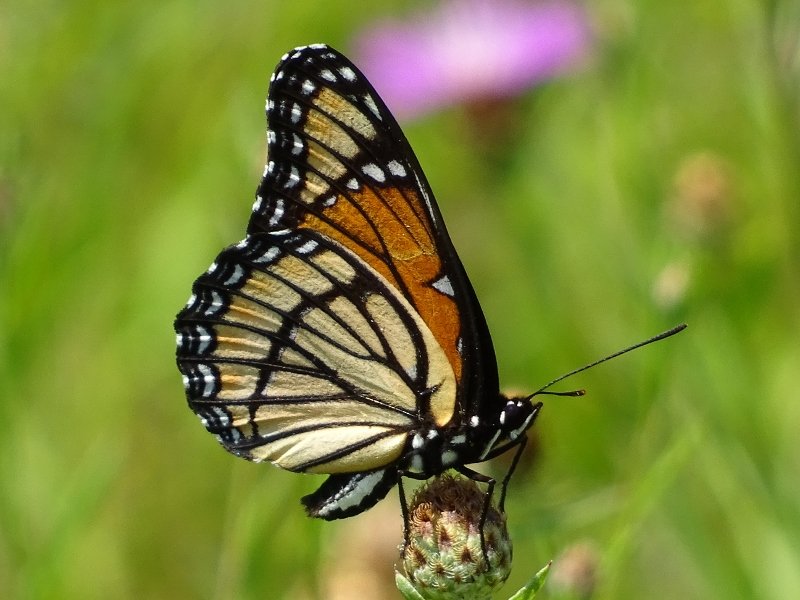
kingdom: Animalia
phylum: Arthropoda
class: Insecta
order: Lepidoptera
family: Nymphalidae
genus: Limenitis
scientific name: Limenitis archippus
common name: Viceroy
